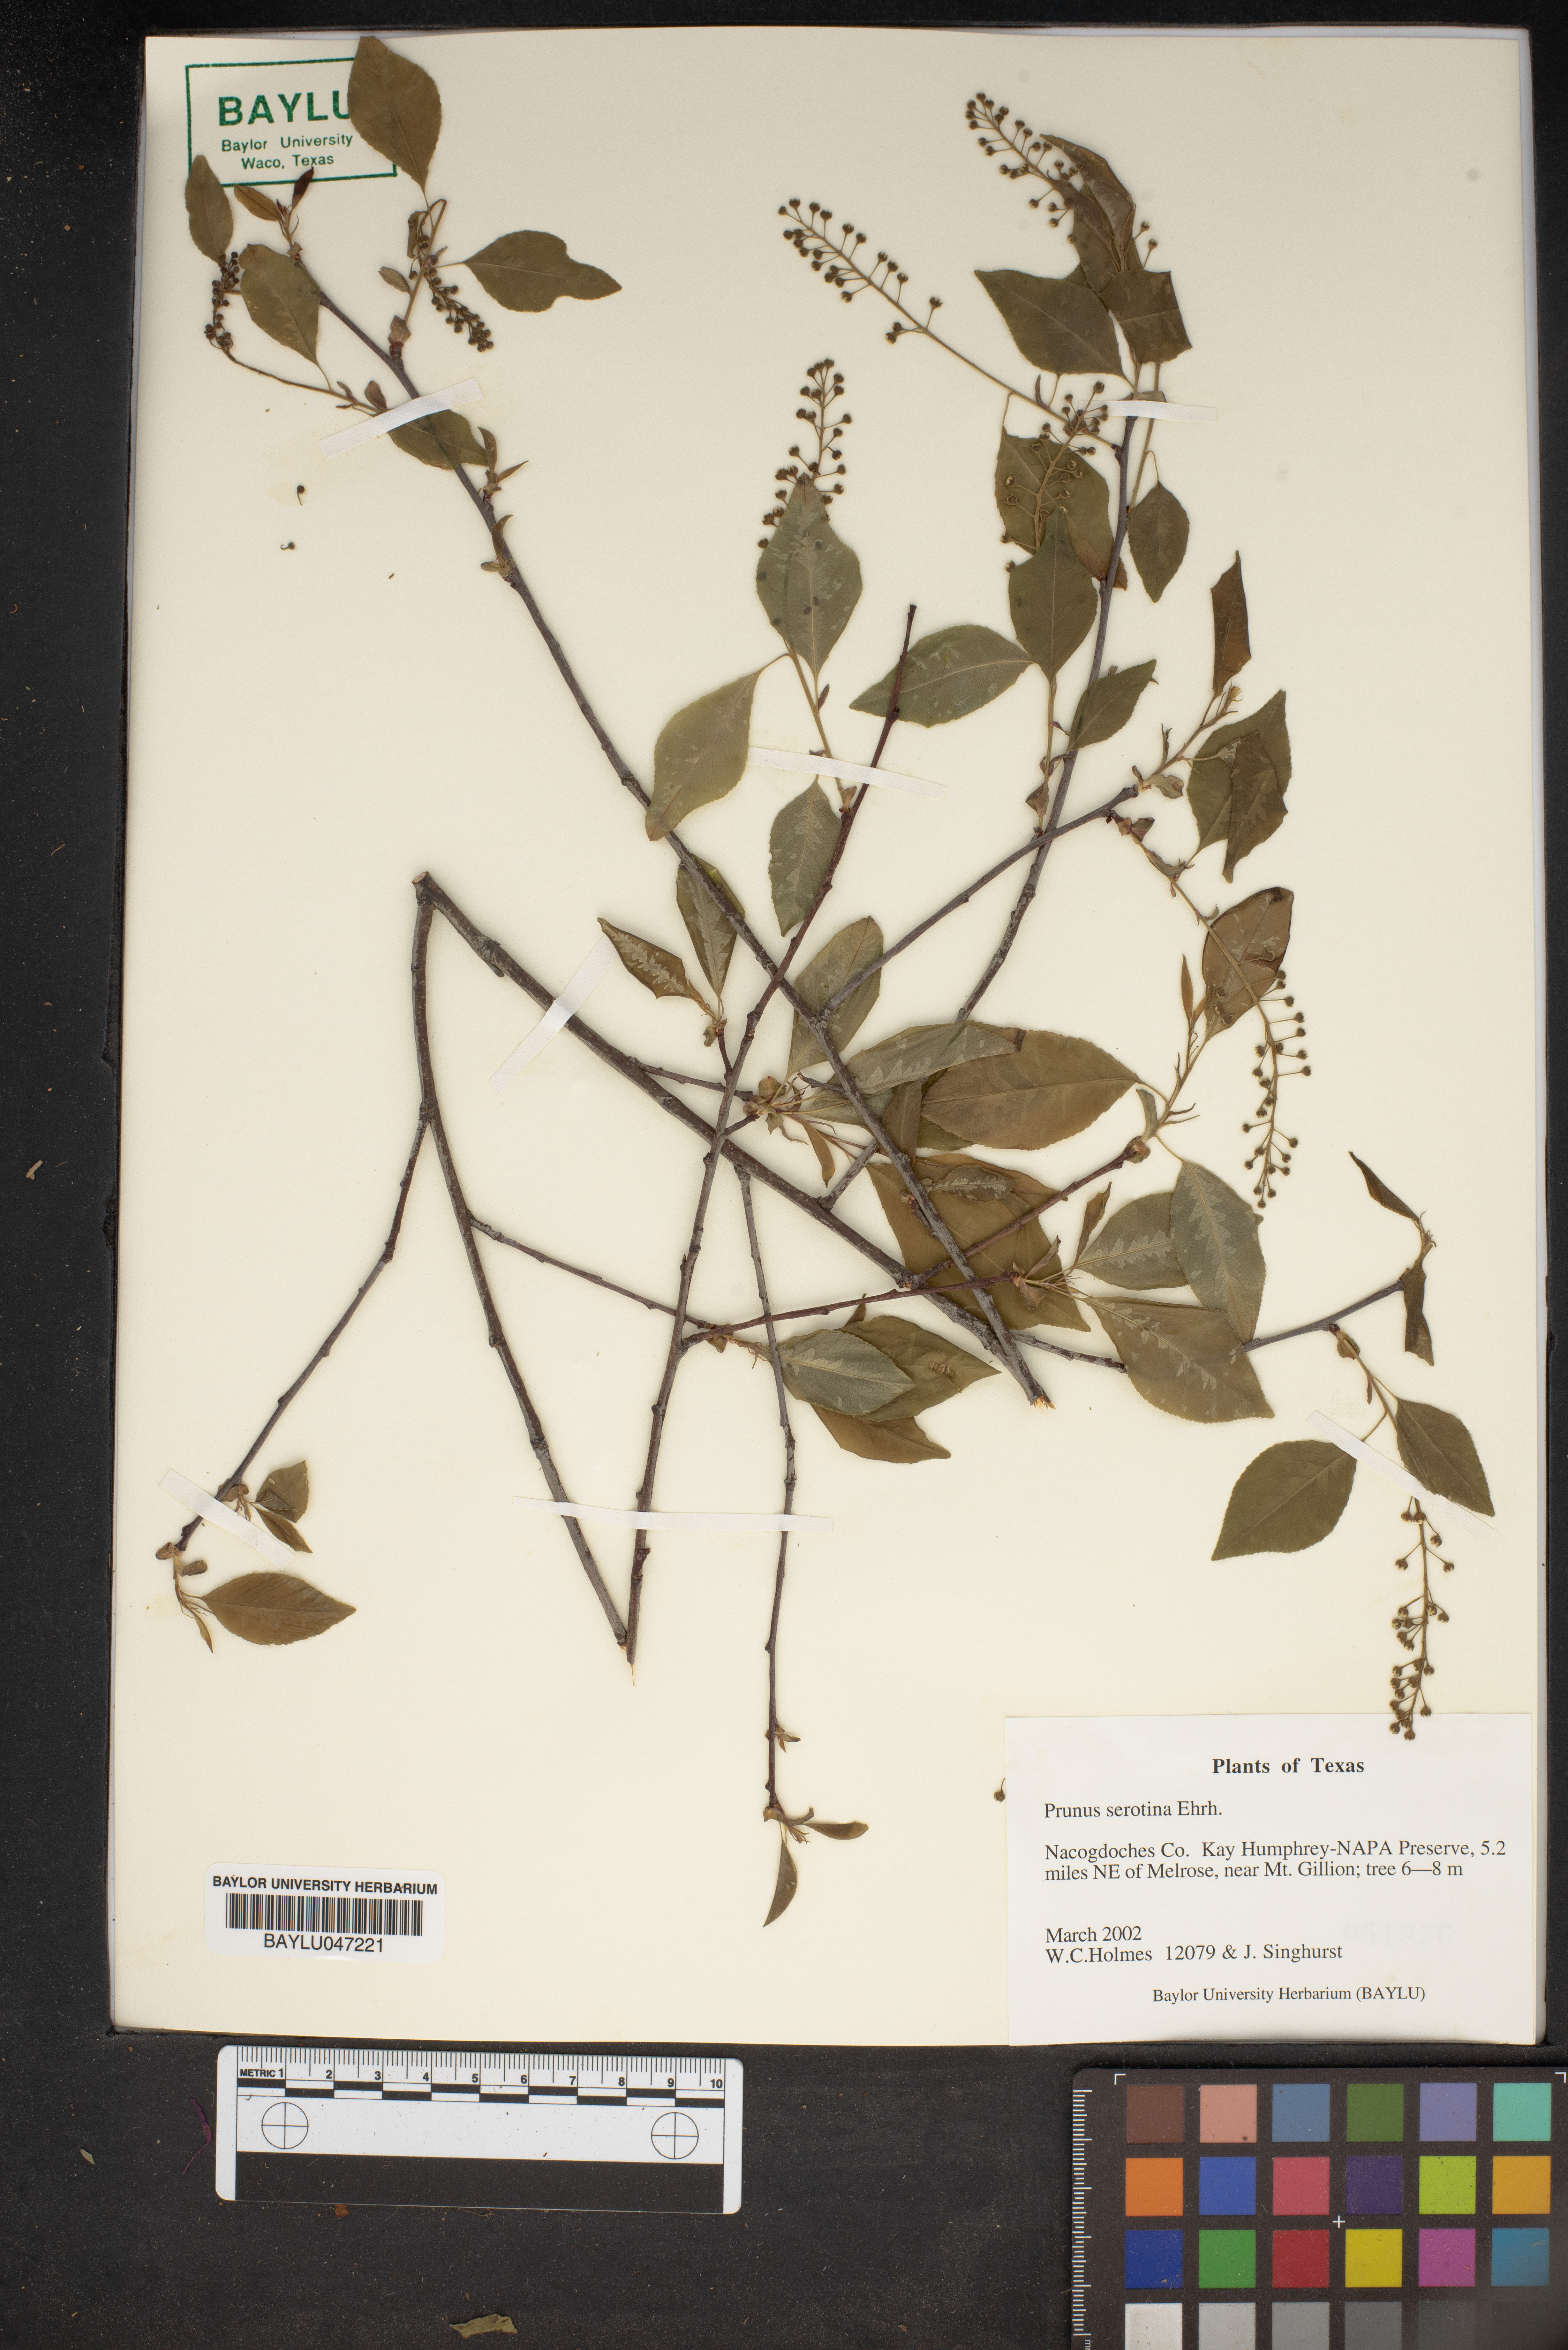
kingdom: Plantae
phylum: Tracheophyta
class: Magnoliopsida
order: Rosales
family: Rosaceae
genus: Prunus
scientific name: Prunus serotina
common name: Black cherry
